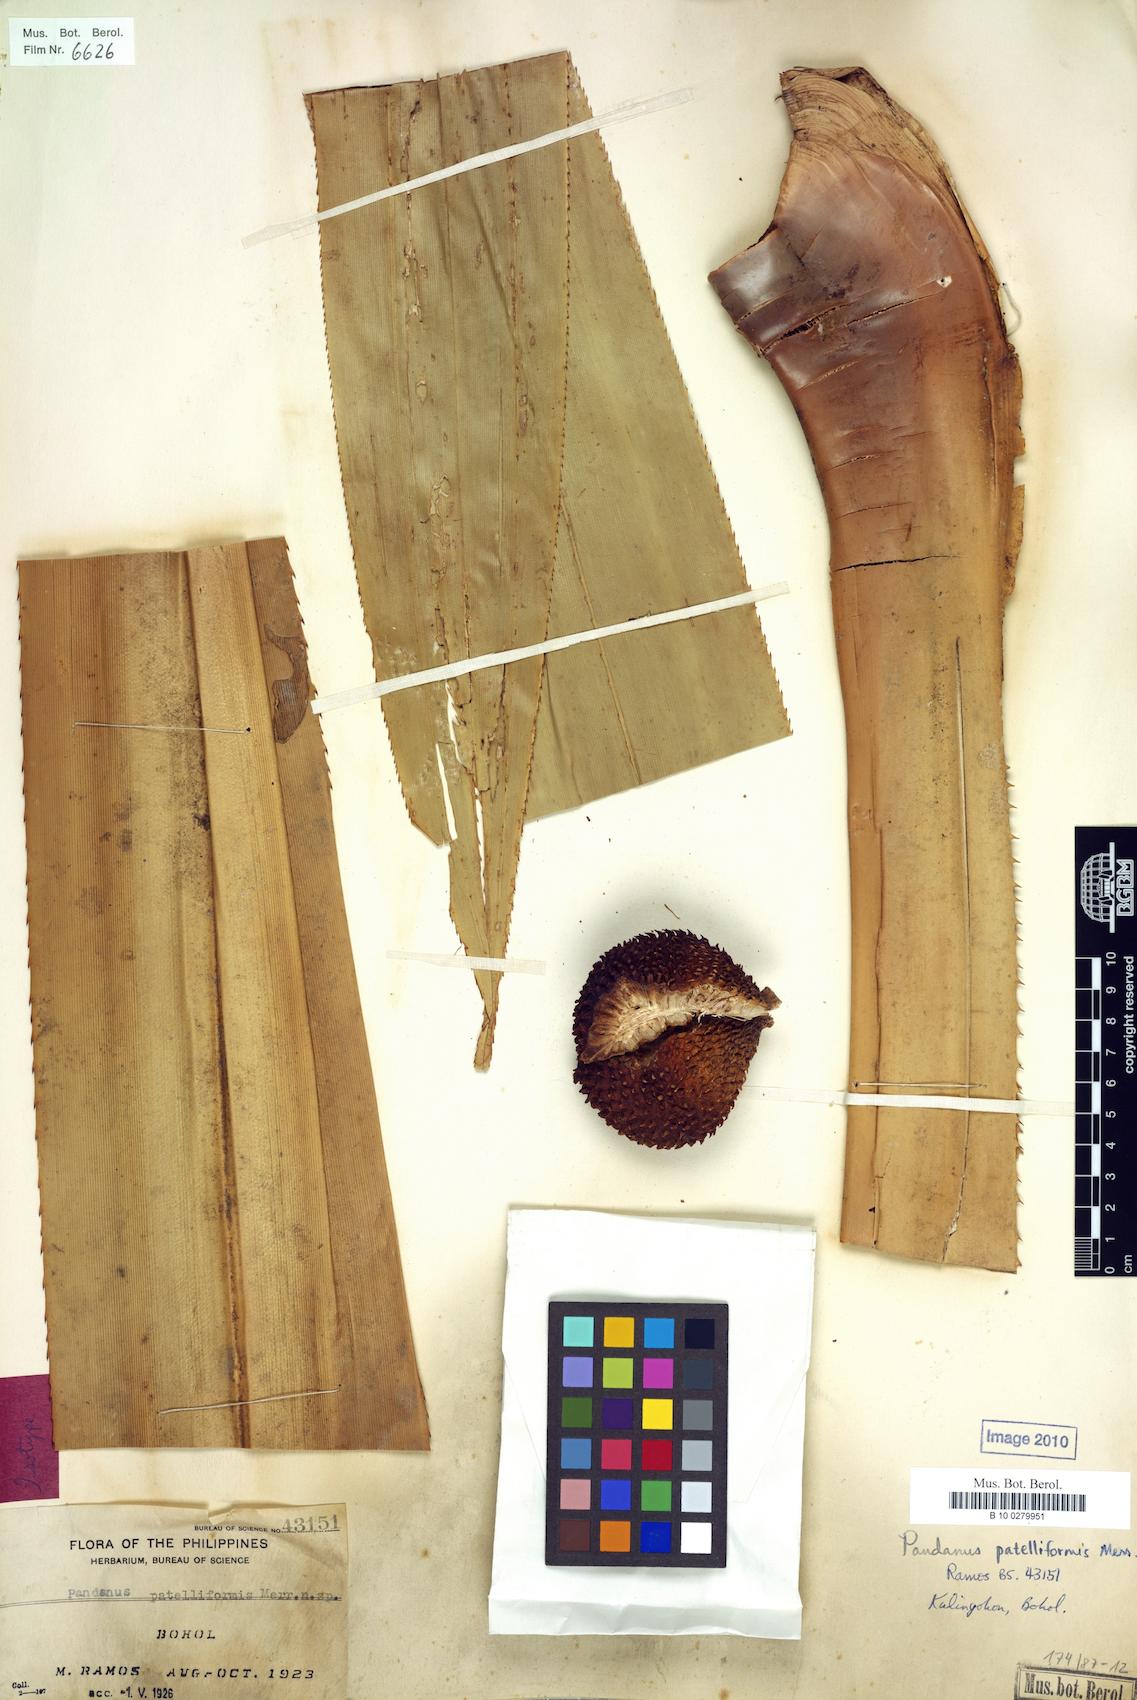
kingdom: Plantae
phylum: Tracheophyta
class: Liliopsida
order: Pandanales
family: Pandanaceae
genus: Pandanus
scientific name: Pandanus patelliformis
